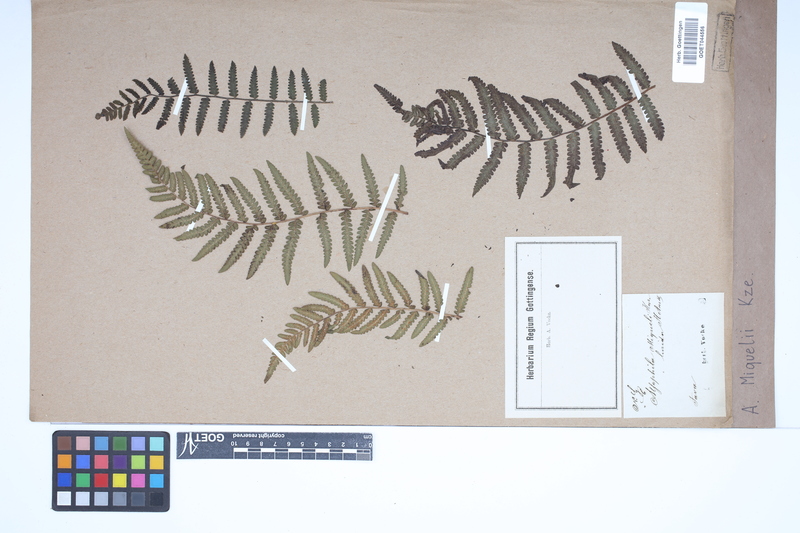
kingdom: Plantae
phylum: Tracheophyta
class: Polypodiopsida
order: Cyatheales
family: Cyatheaceae
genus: Cyathea
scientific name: Cyathea atrovirens
